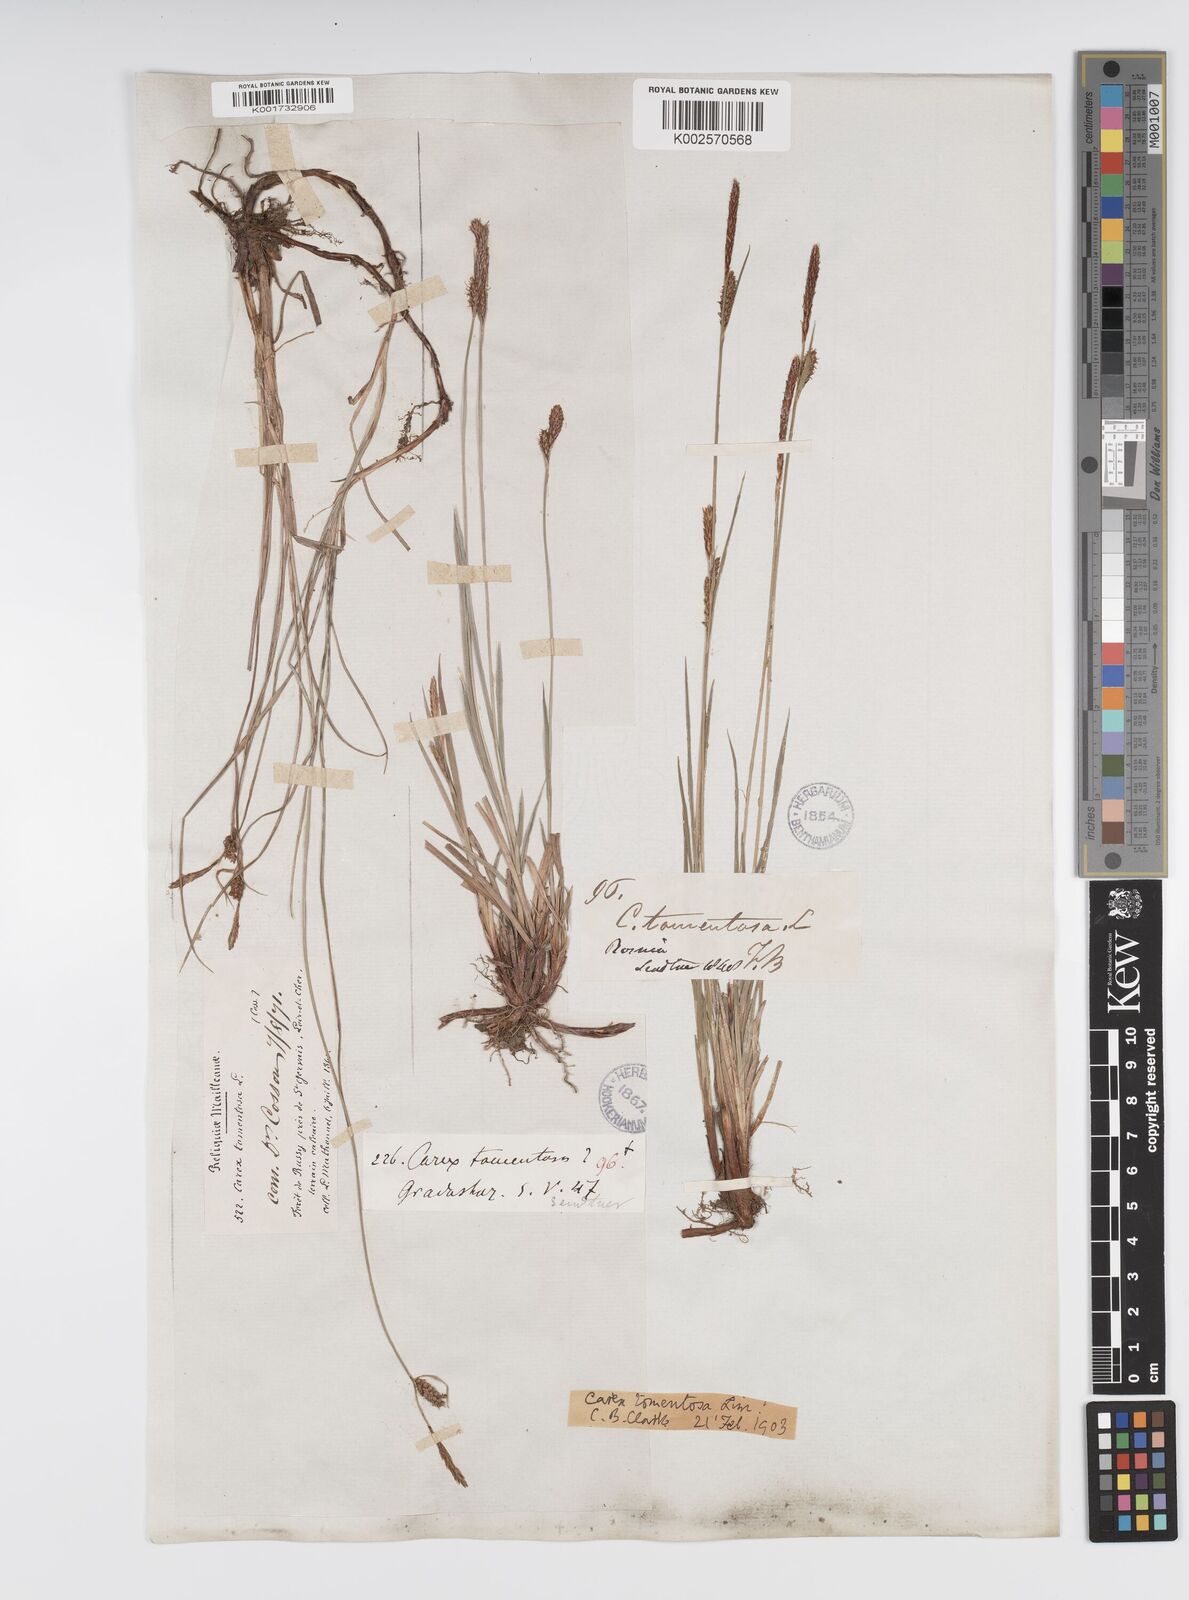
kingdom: Plantae
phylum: Tracheophyta
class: Liliopsida
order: Poales
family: Cyperaceae
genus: Carex
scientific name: Carex montana
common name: Soft-leaved sedge
